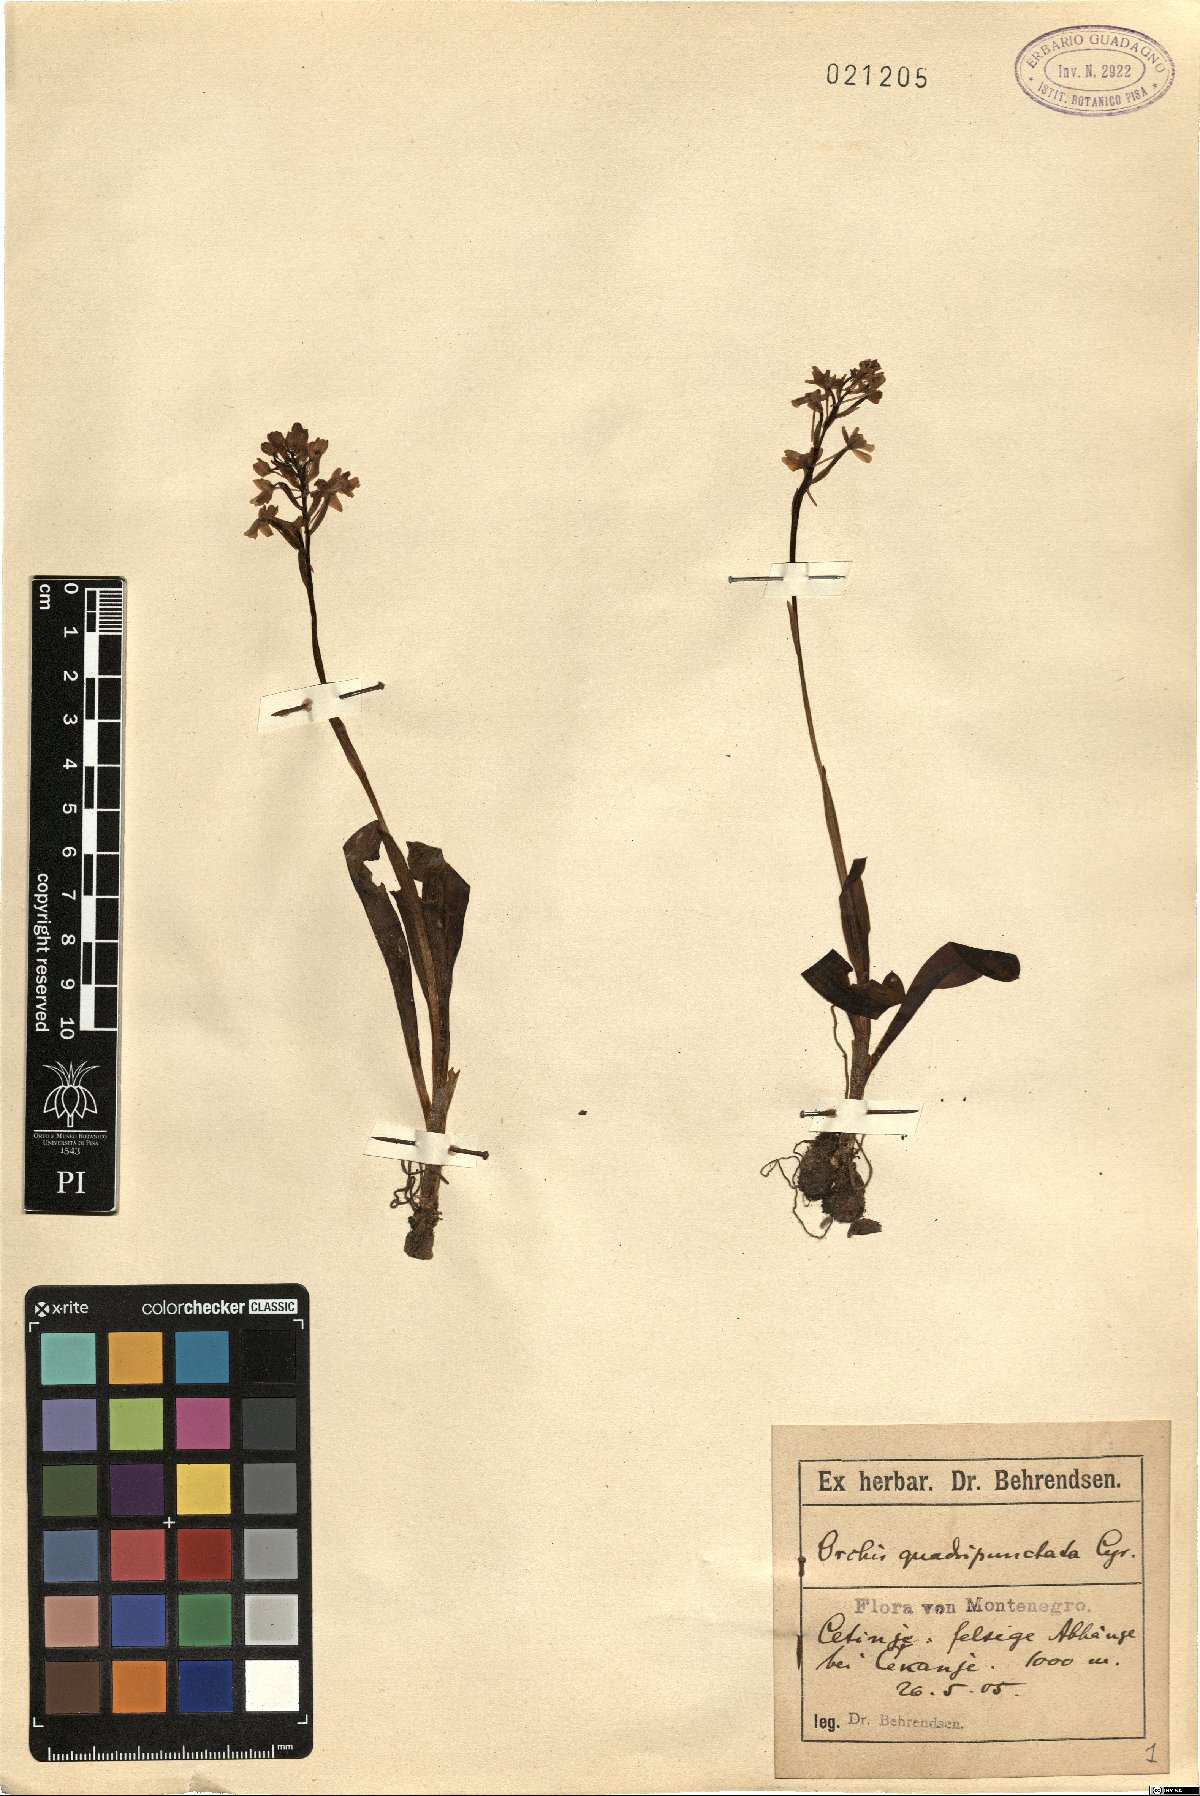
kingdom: Plantae
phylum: Tracheophyta
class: Liliopsida
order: Asparagales
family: Orchidaceae
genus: Orchis
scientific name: Orchis quadripunctata
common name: Four-spotted orchid
